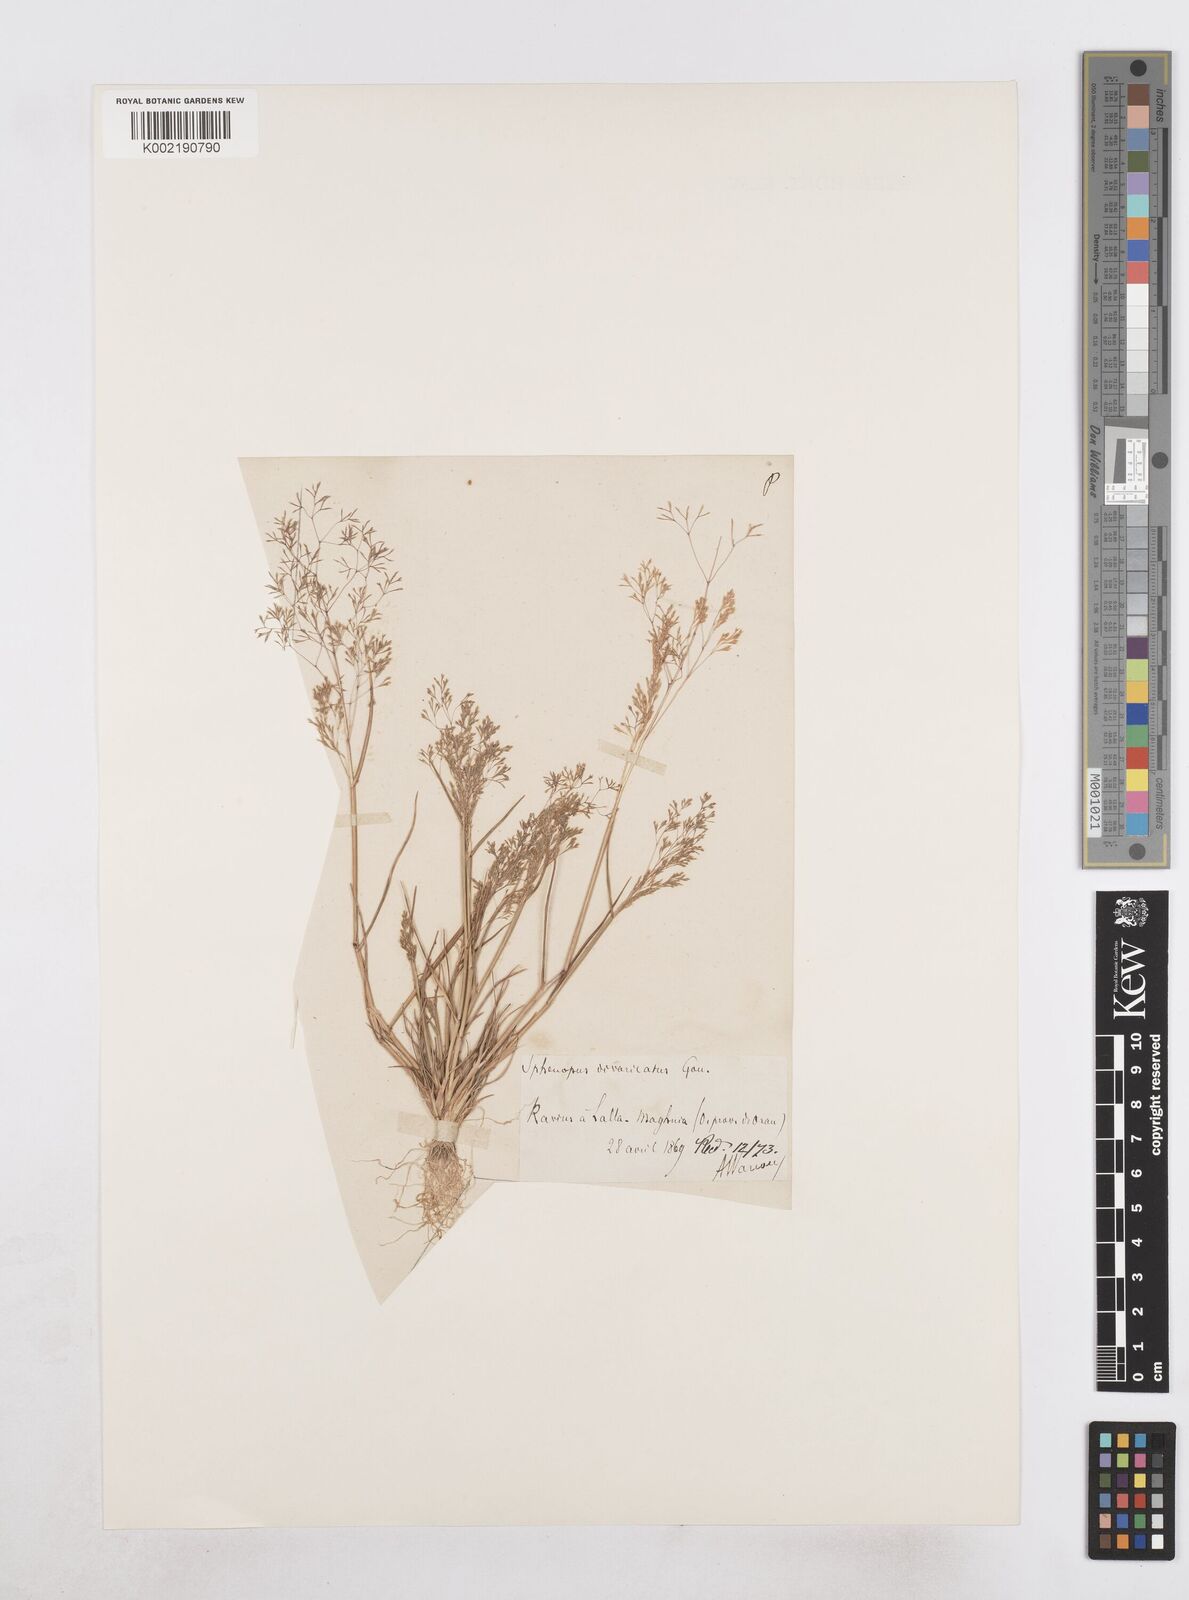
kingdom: Plantae
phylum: Tracheophyta
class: Liliopsida
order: Poales
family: Poaceae
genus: Sphenopus
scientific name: Sphenopus divaricatus
